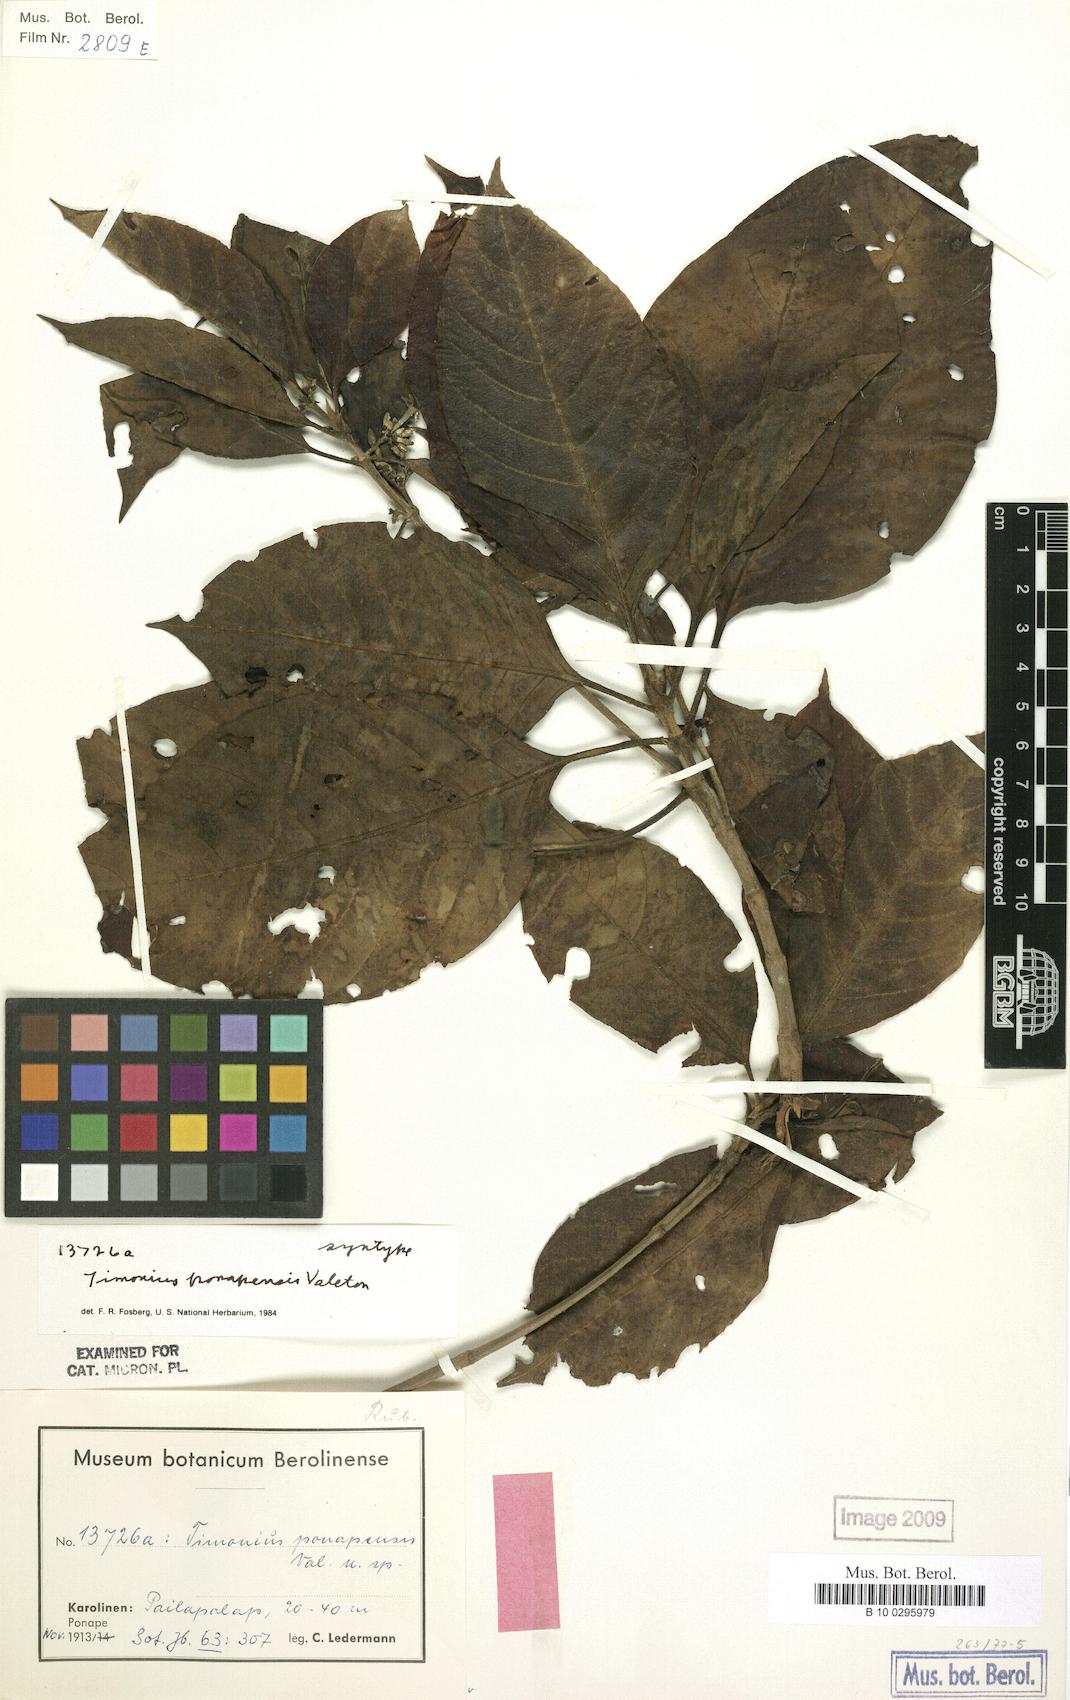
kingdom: Plantae
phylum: Tracheophyta
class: Magnoliopsida
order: Gentianales
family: Rubiaceae
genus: Timonius
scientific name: Timonius ponapensis
